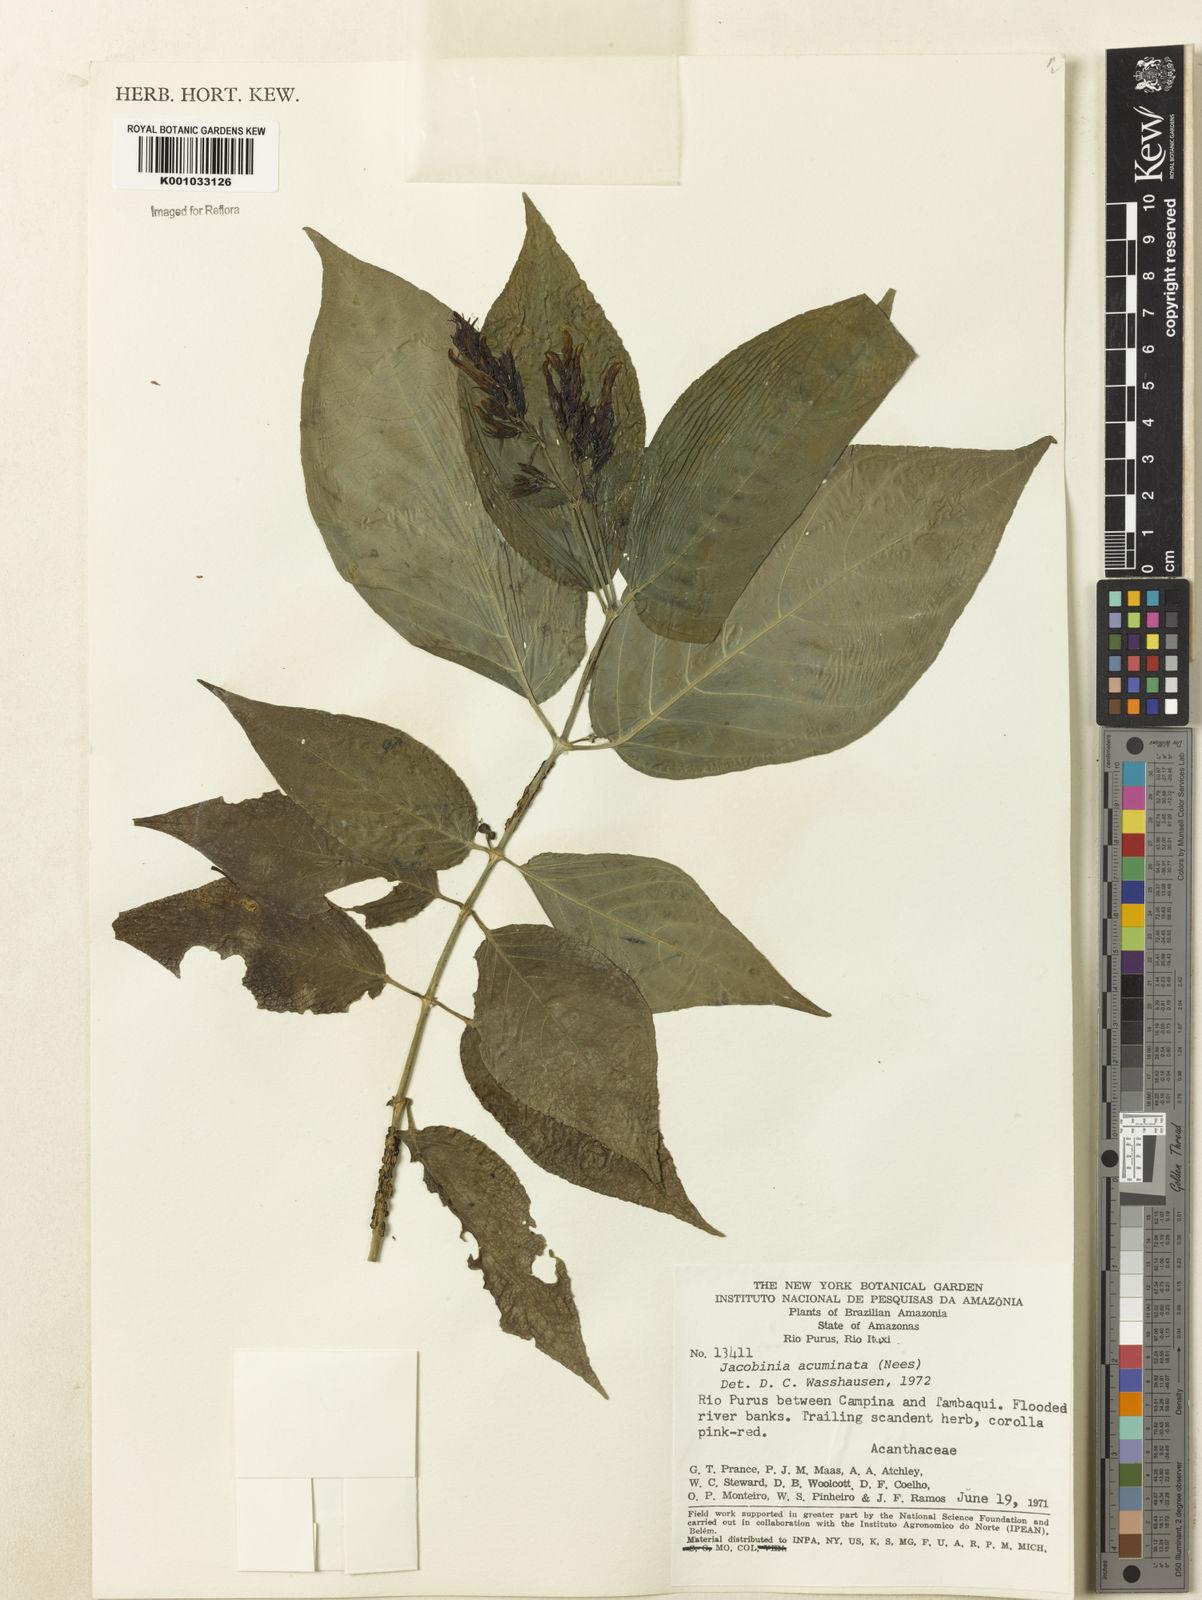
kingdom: Plantae
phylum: Tracheophyta
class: Magnoliopsida
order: Lamiales
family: Acanthaceae
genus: Dianthera
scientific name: Dianthera comata
